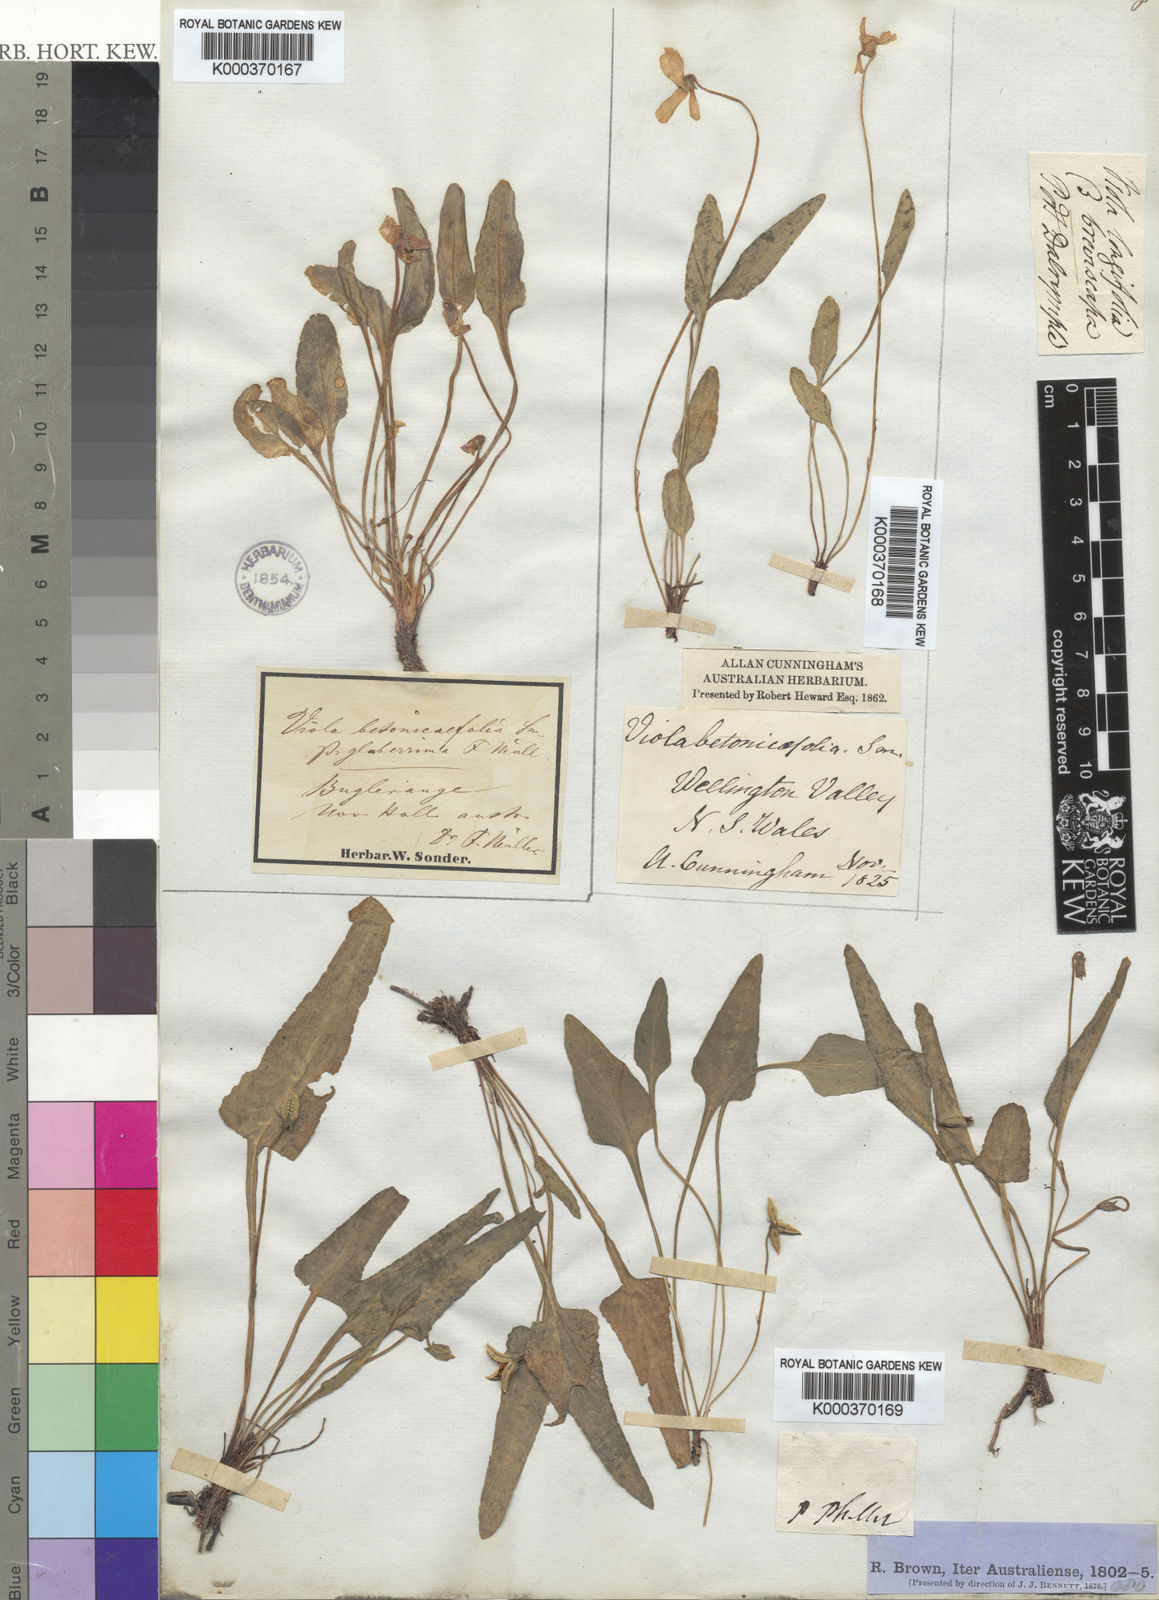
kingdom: Plantae
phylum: Tracheophyta
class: Magnoliopsida
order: Malpighiales
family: Violaceae
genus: Viola
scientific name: Viola betonicifolia
